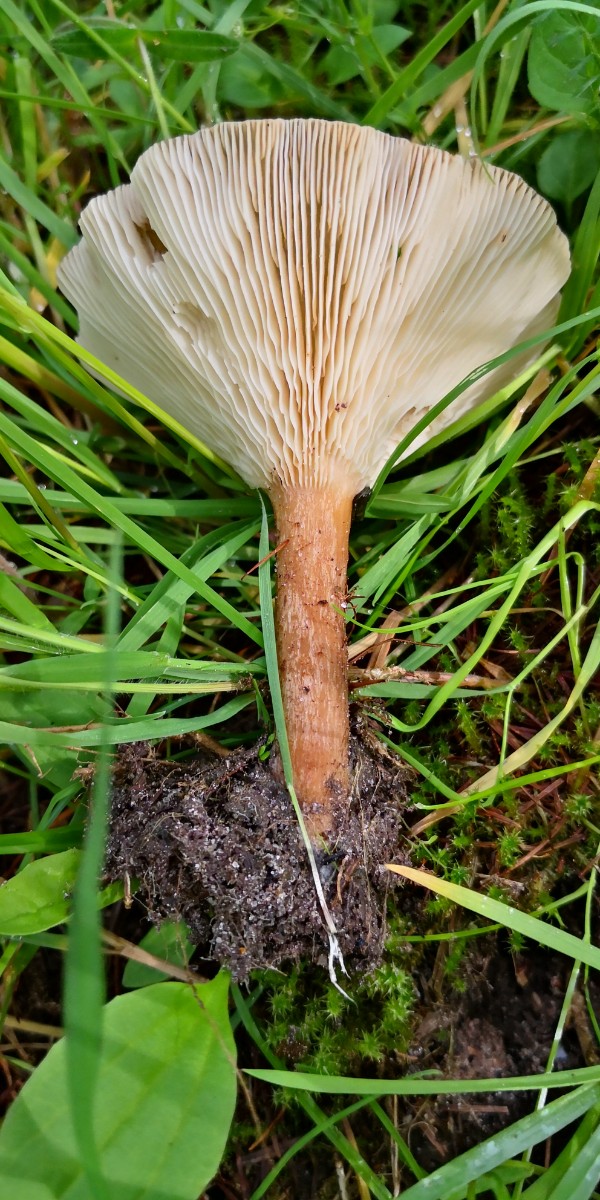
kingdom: Fungi
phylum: Basidiomycota
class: Agaricomycetes
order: Agaricales
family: Tricholomataceae
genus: Infundibulicybe
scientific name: Infundibulicybe gibba
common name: almindelig tragthat
